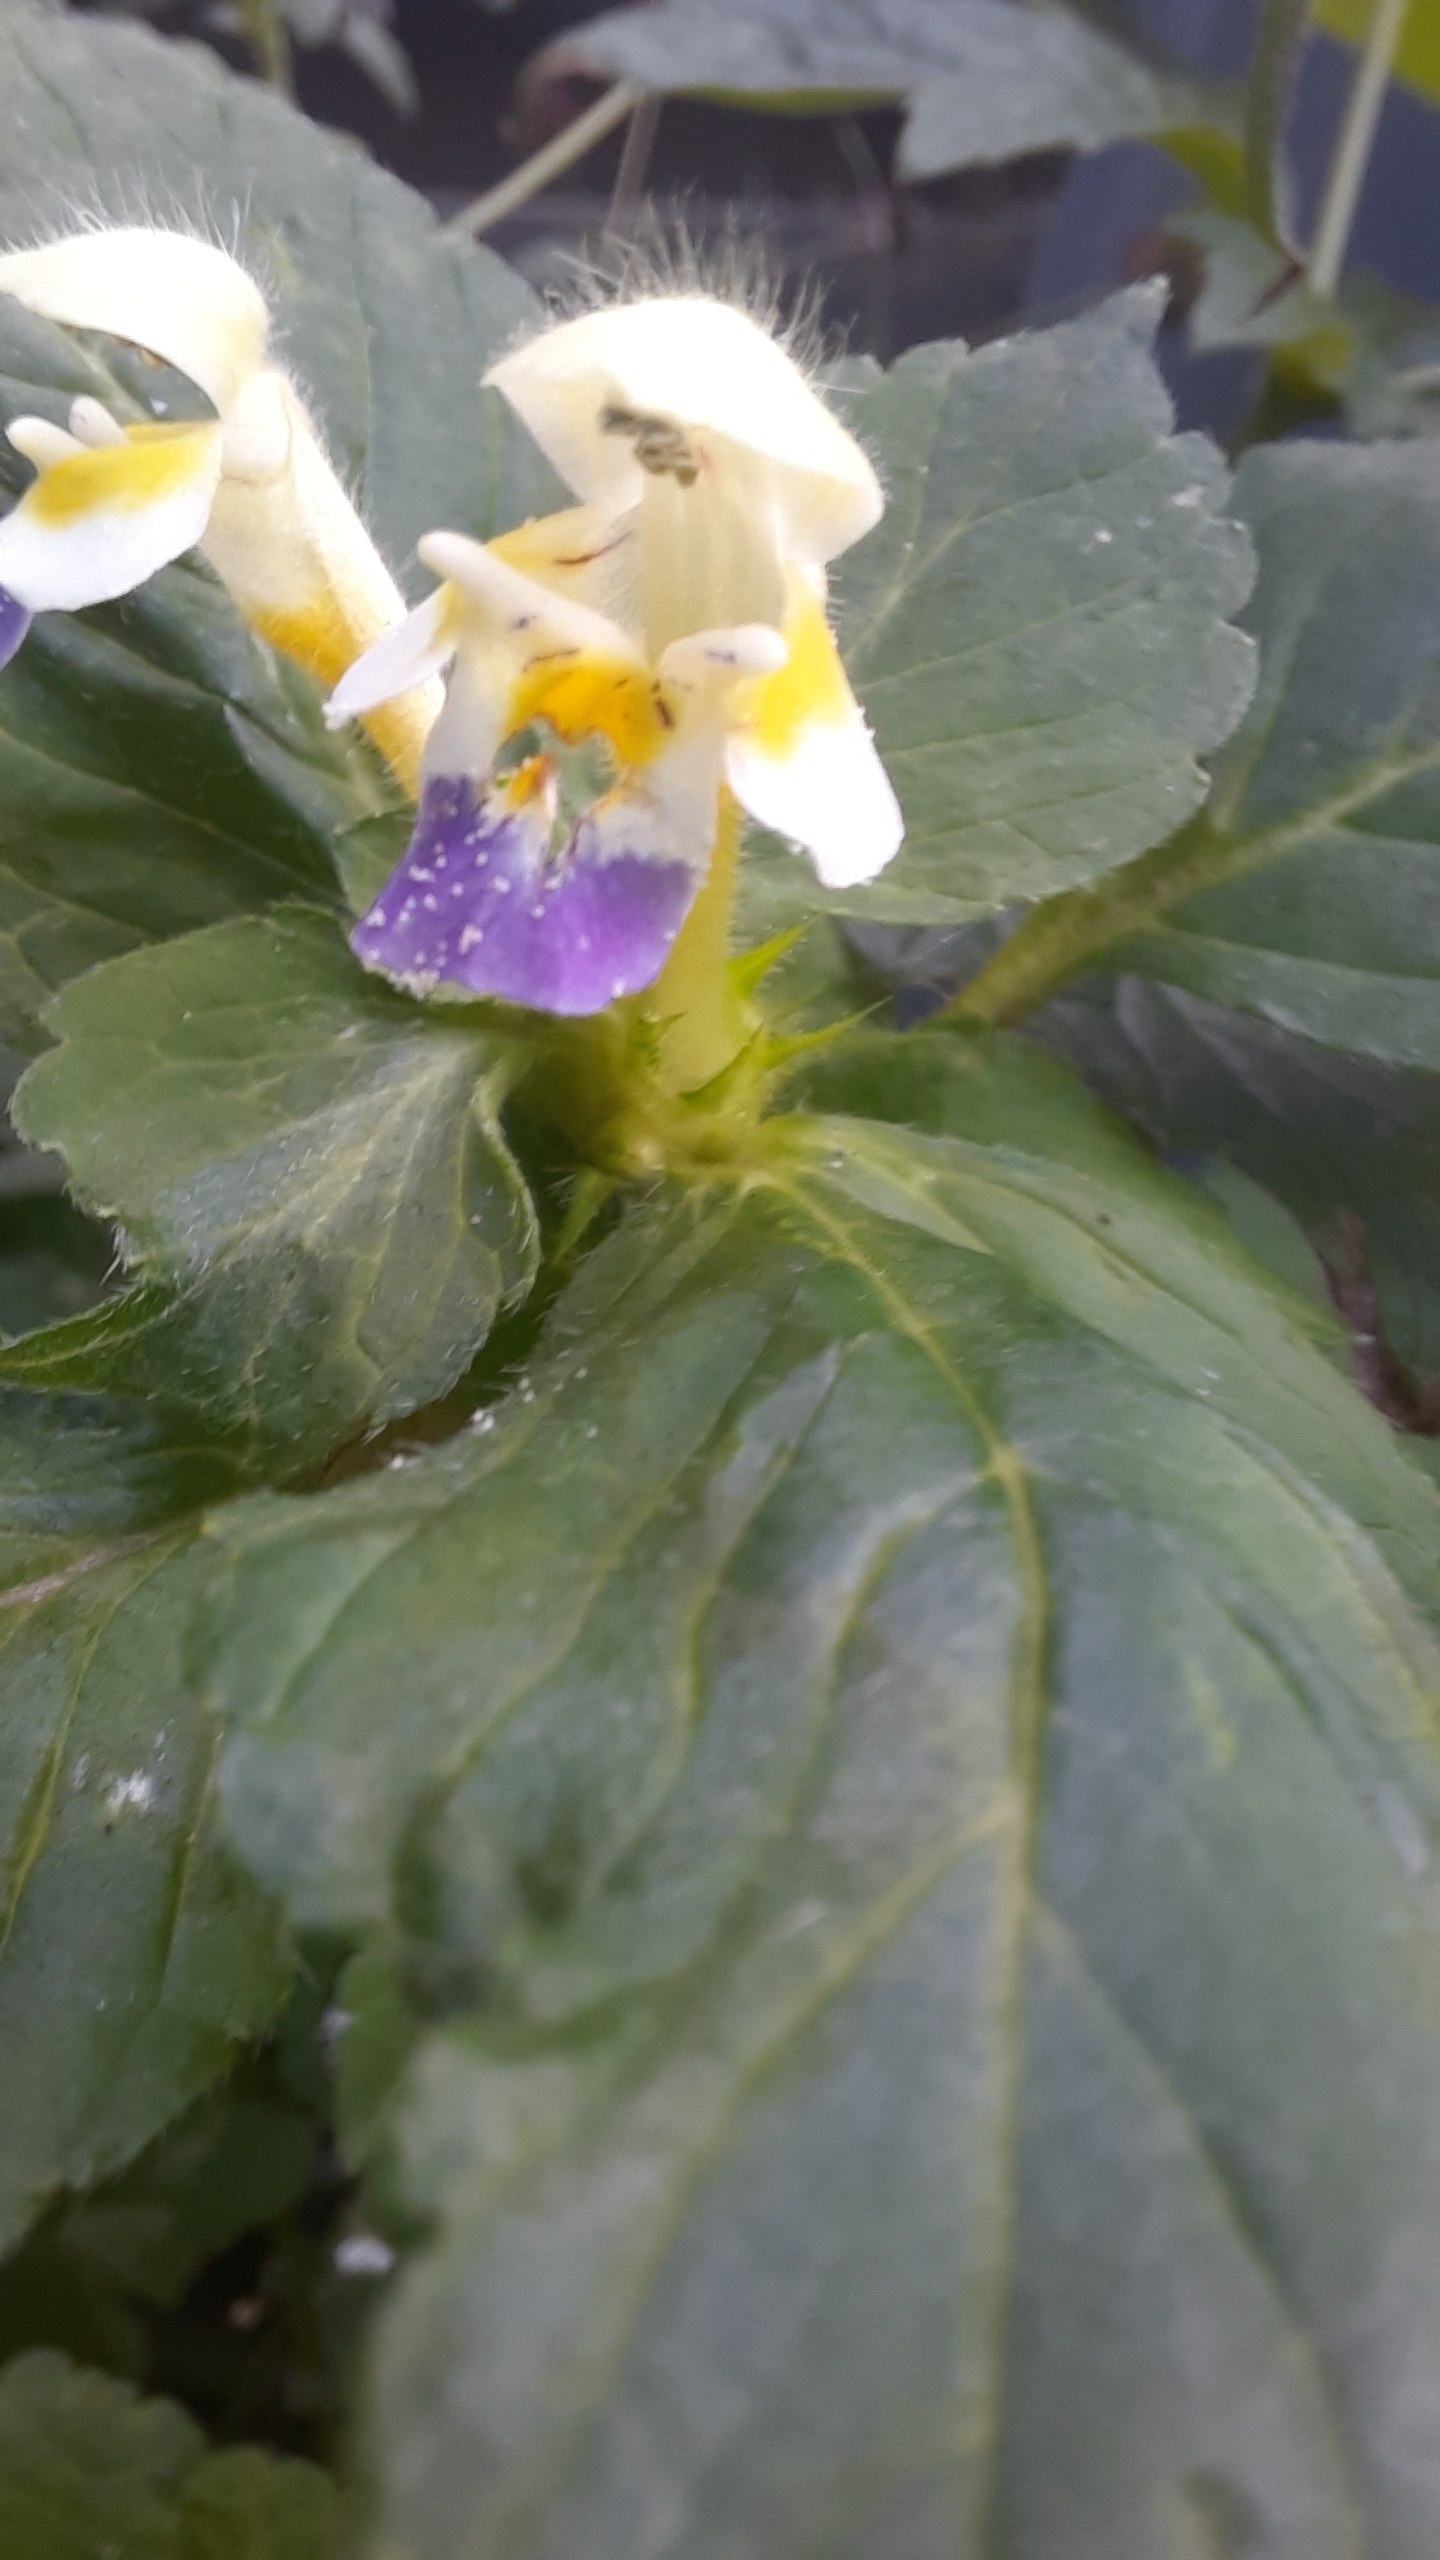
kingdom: Plantae
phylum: Tracheophyta
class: Magnoliopsida
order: Lamiales
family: Lamiaceae
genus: Galeopsis
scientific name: Galeopsis speciosa
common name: Hamp-hanekro
